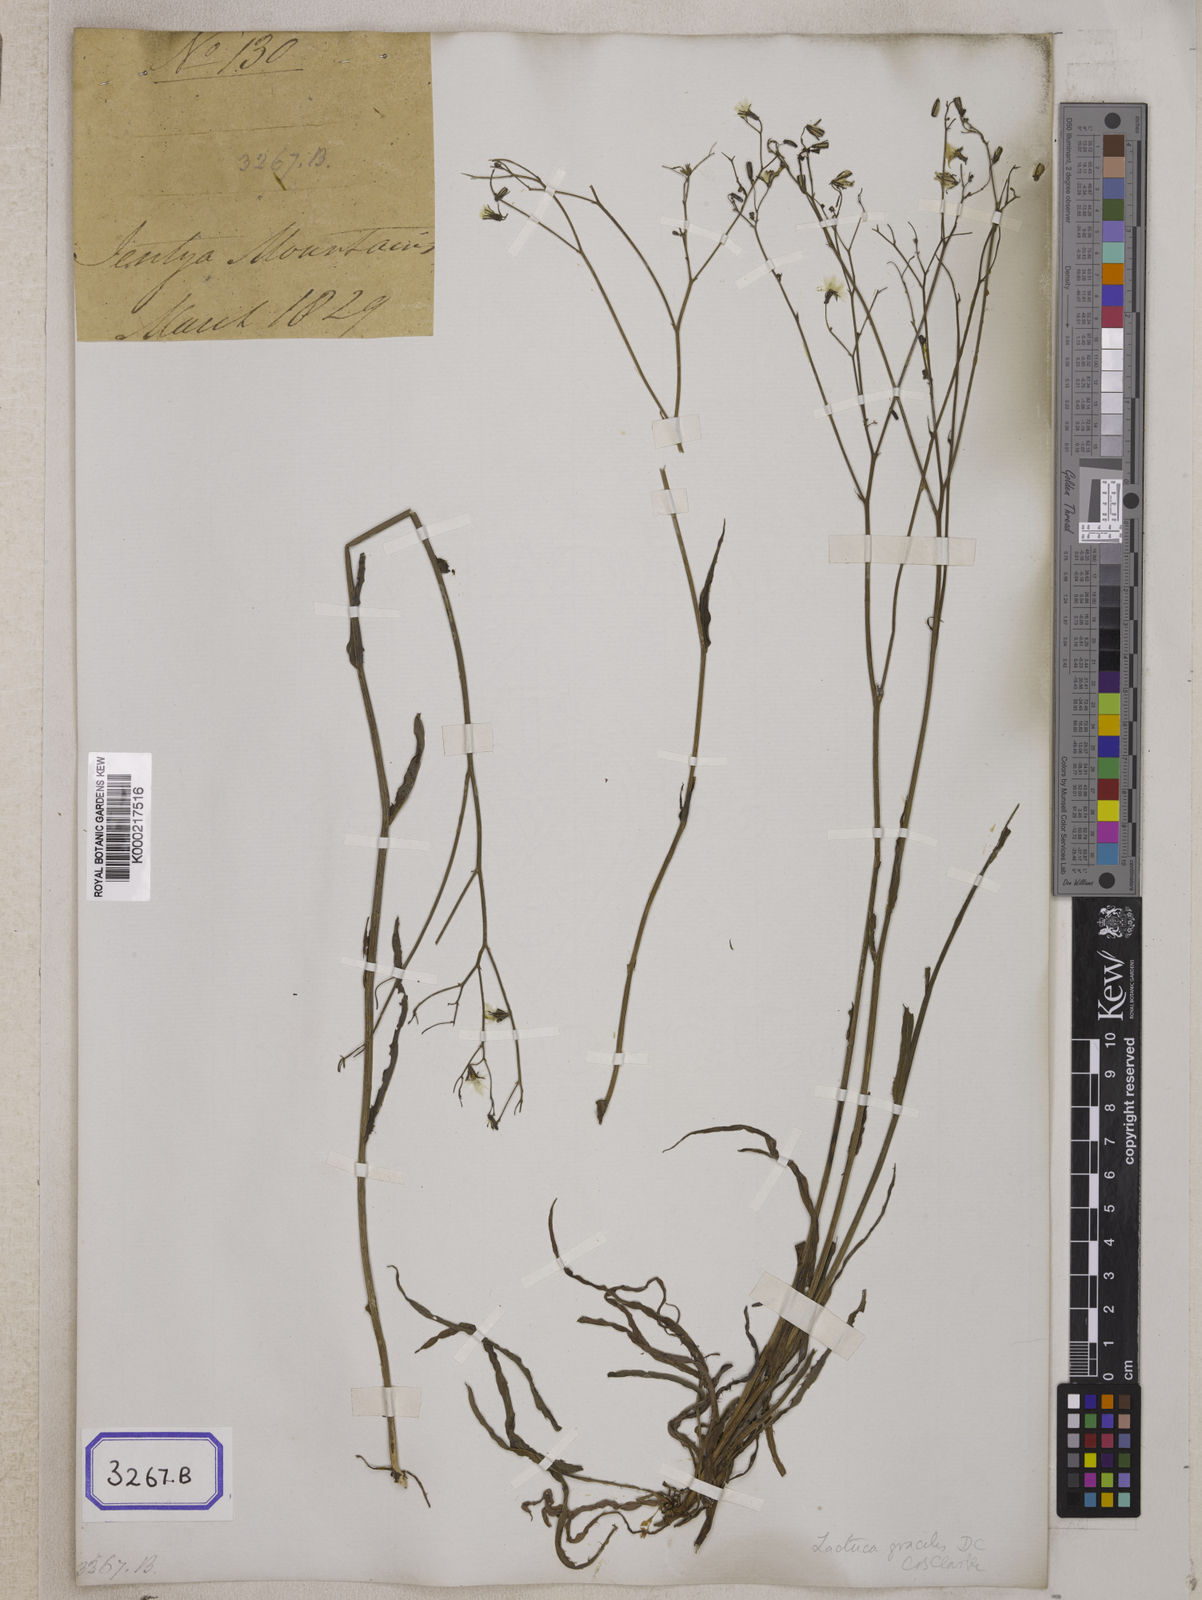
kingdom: Plantae
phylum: Tracheophyta
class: Magnoliopsida
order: Asterales
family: Asteraceae
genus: Ixeridium
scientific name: Ixeridium gracile
